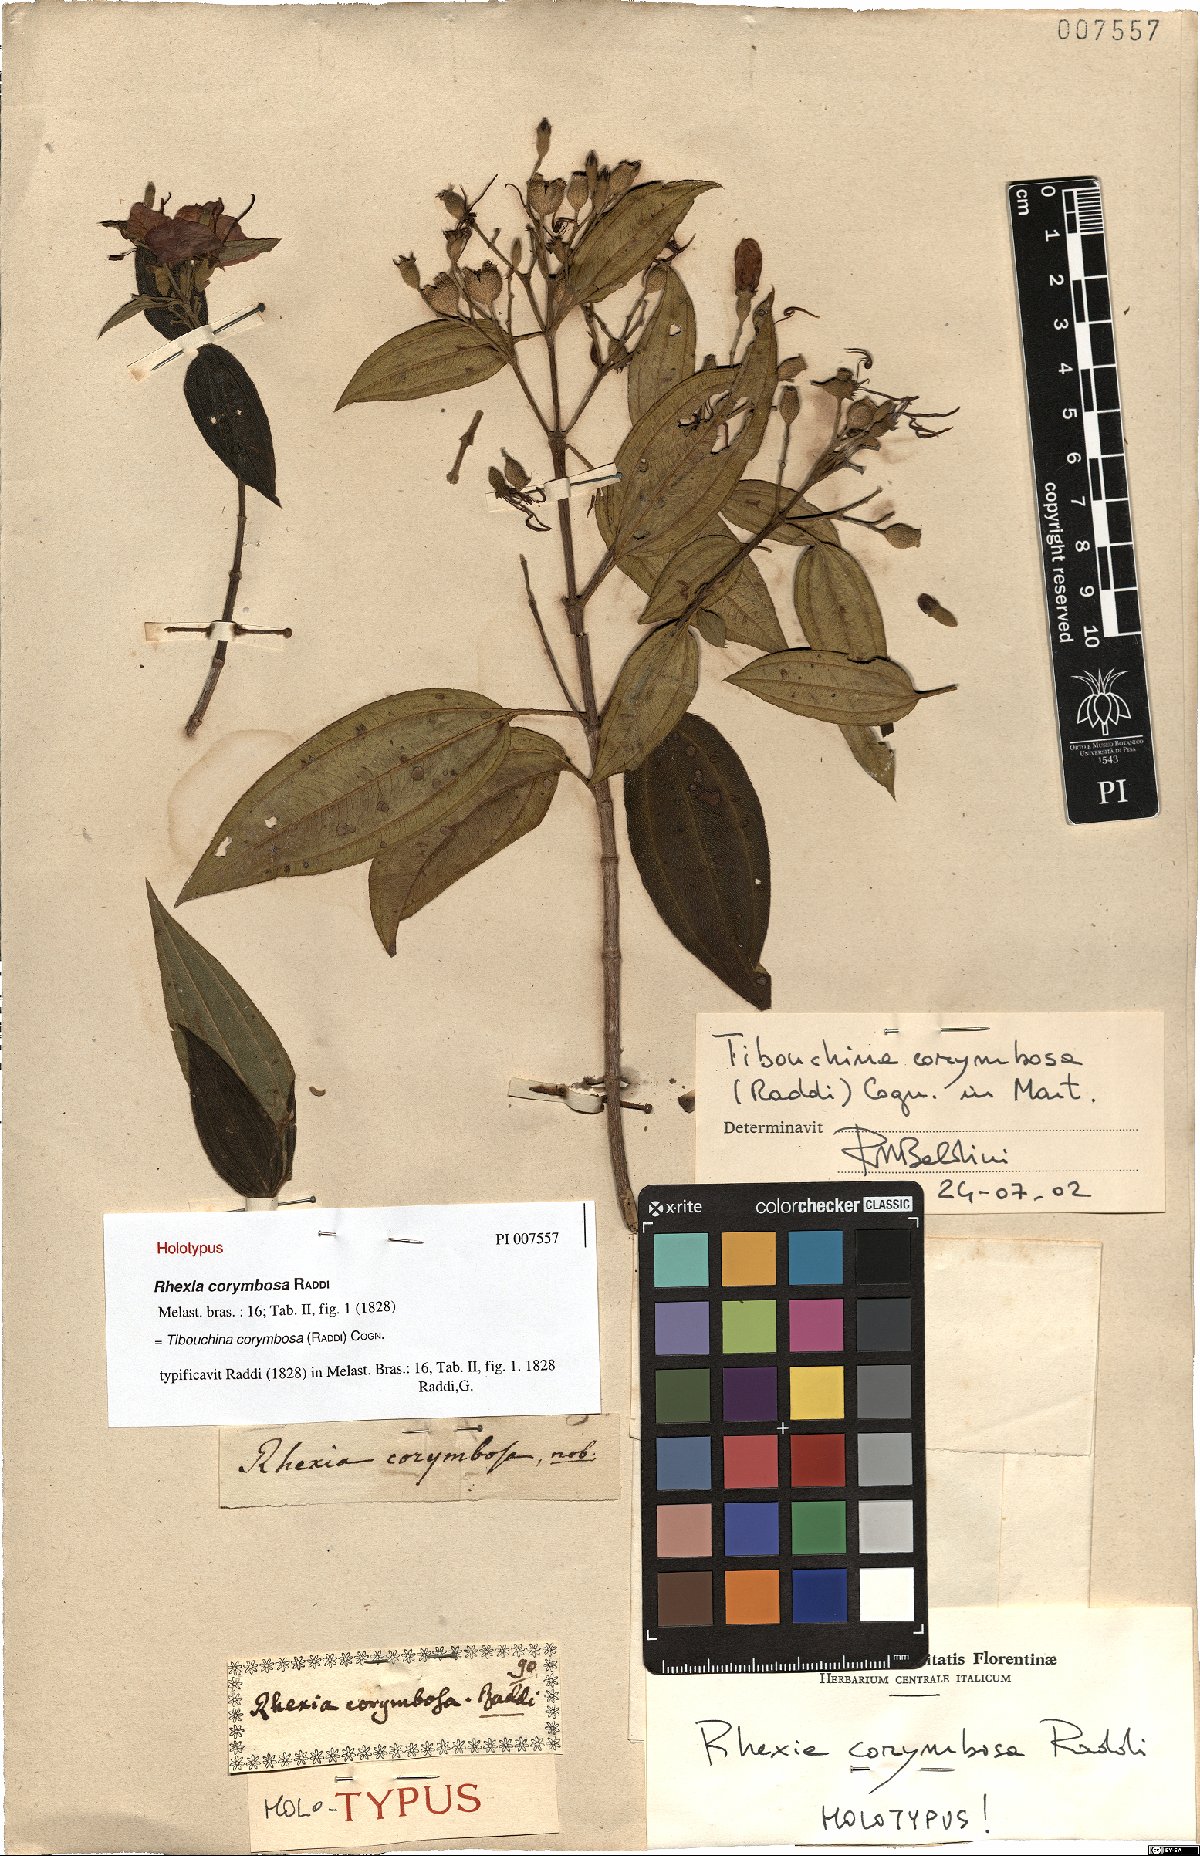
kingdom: Plantae
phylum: Tracheophyta
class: Magnoliopsida
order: Myrtales
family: Melastomataceae
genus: Pleroma
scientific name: Pleroma vimineum
